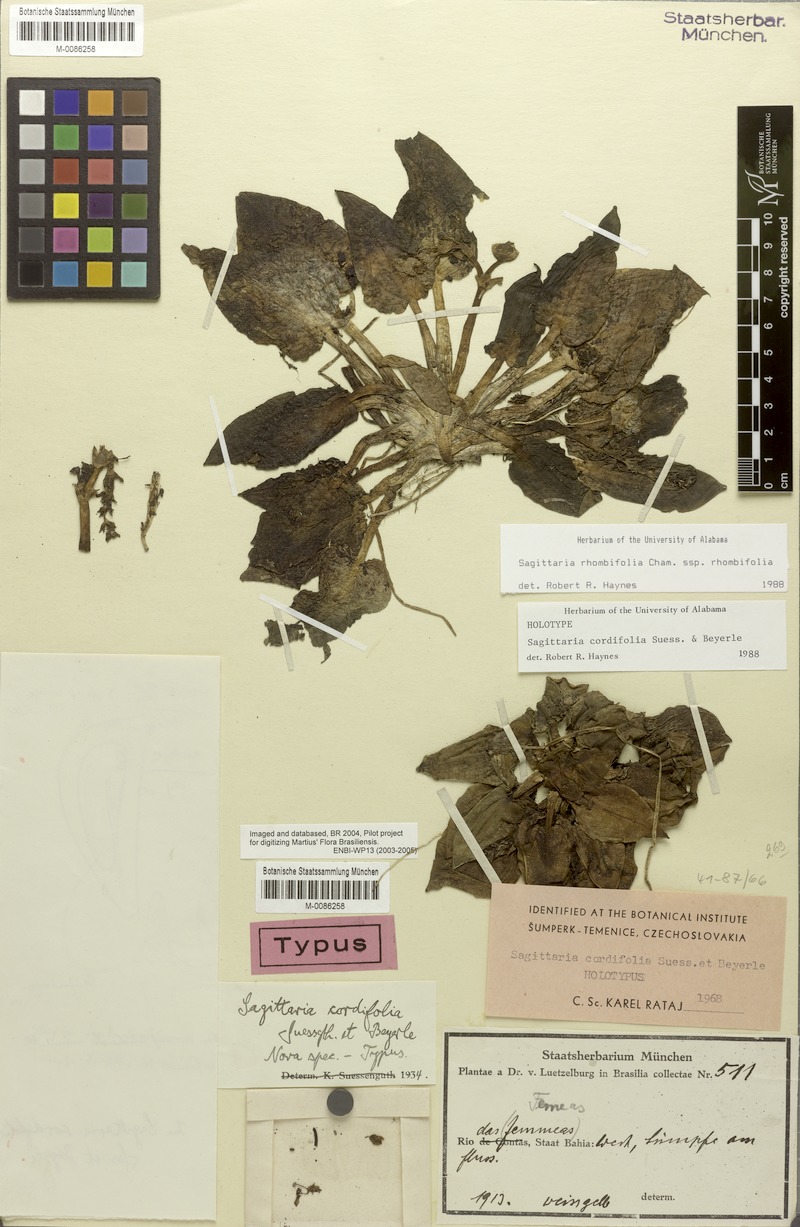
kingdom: Plantae
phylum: Tracheophyta
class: Liliopsida
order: Alismatales
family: Alismataceae
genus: Sagittaria
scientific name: Sagittaria rhombifolia
